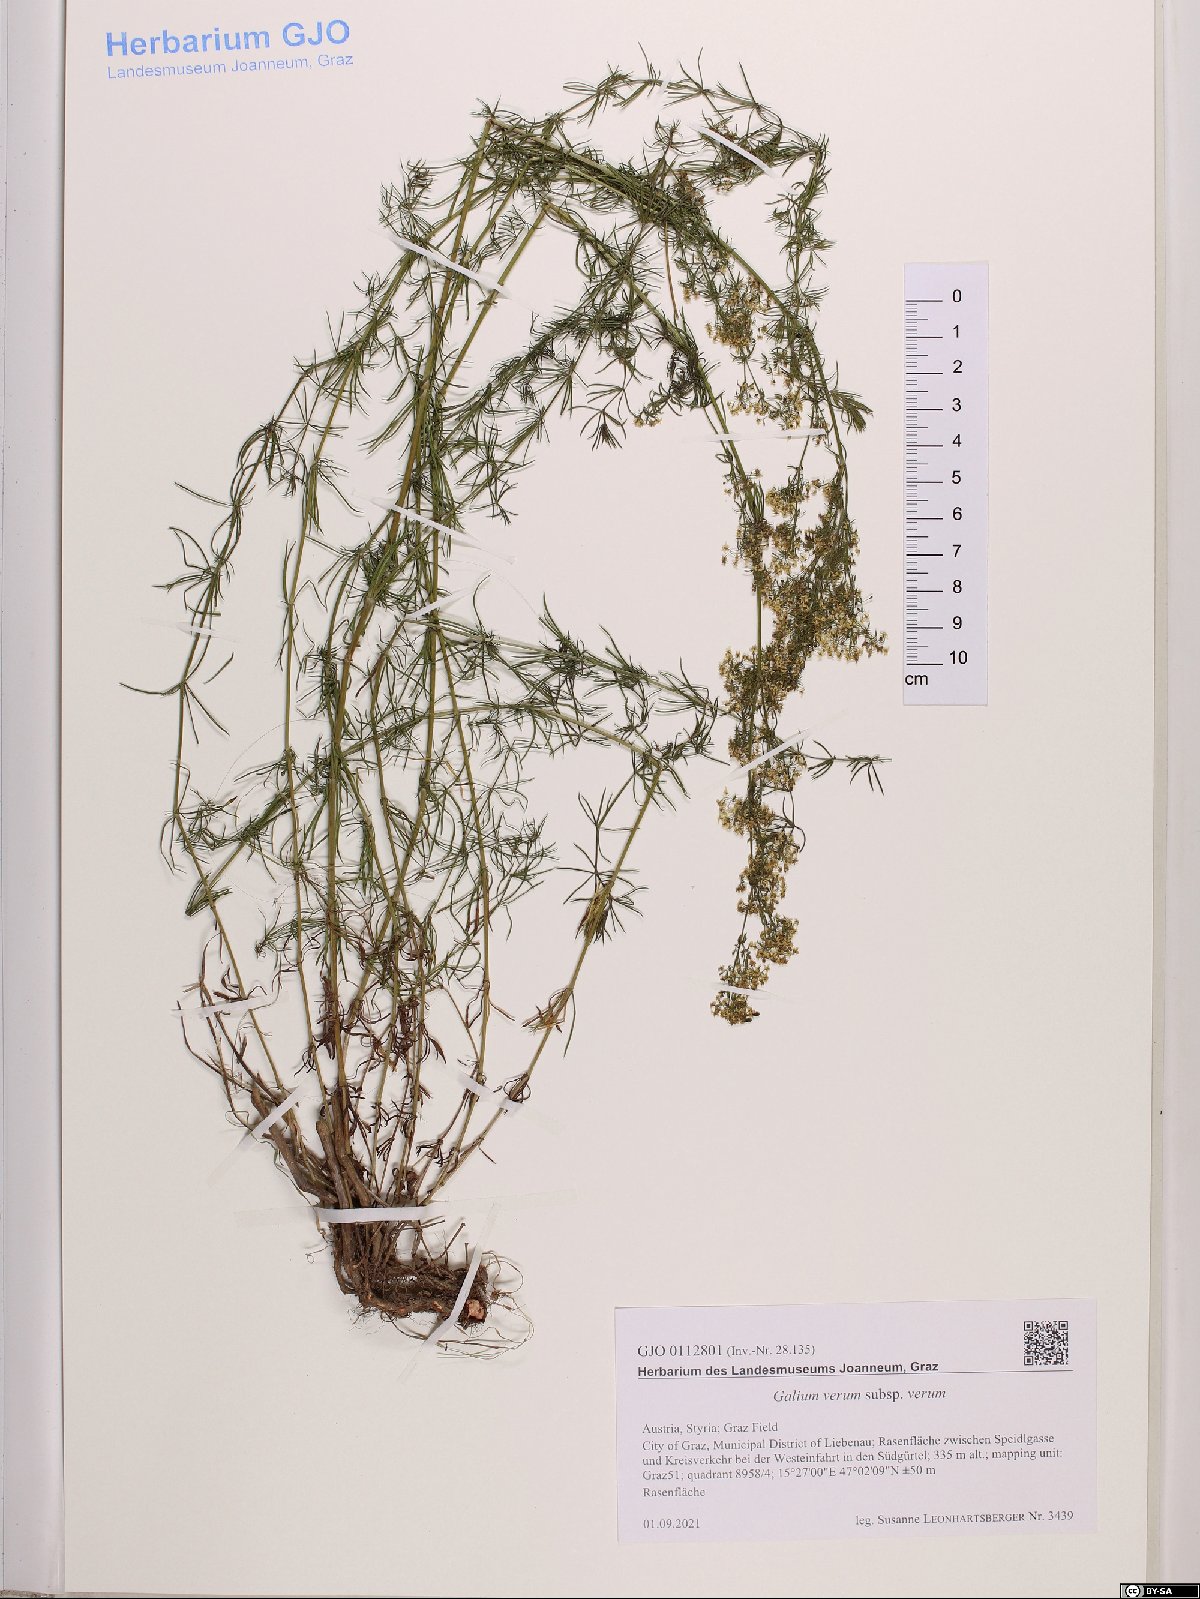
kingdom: Plantae
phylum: Tracheophyta
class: Magnoliopsida
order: Gentianales
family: Rubiaceae
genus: Galium
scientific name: Galium verum
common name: Lady's bedstraw
